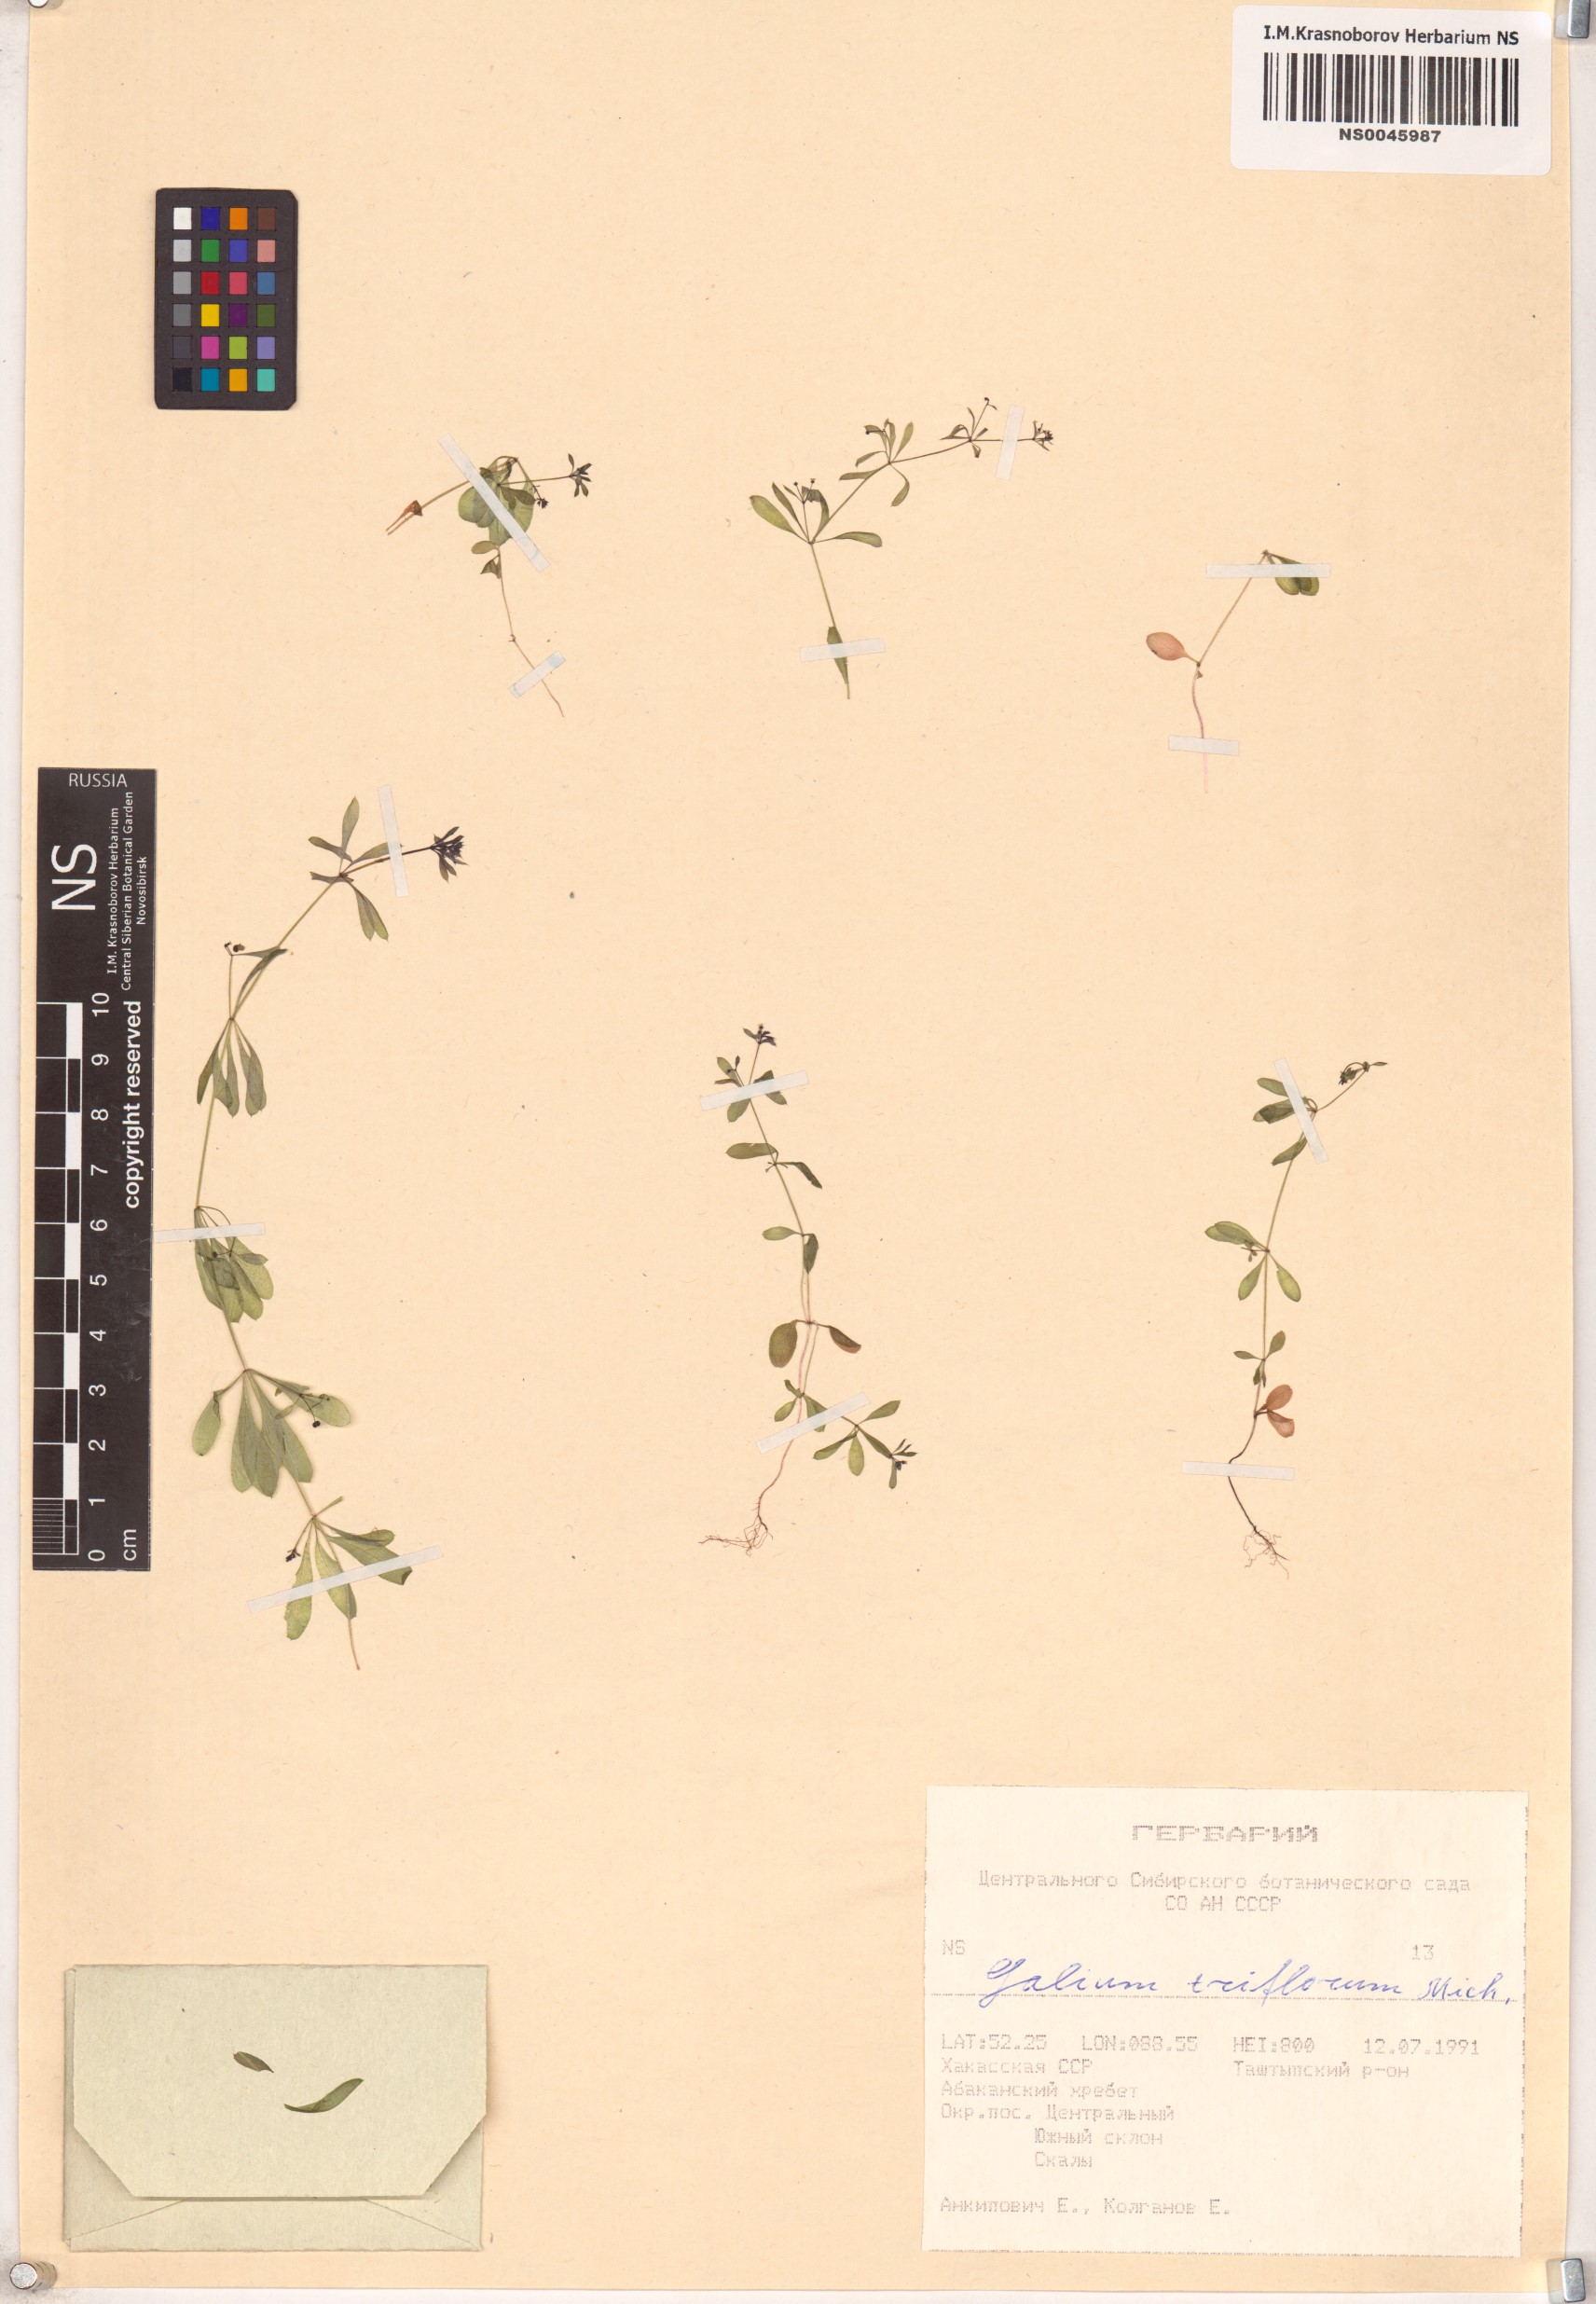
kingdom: Plantae
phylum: Tracheophyta
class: Magnoliopsida
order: Gentianales
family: Rubiaceae
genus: Galium
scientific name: Galium triflorum
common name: Fragrant bedstraw
